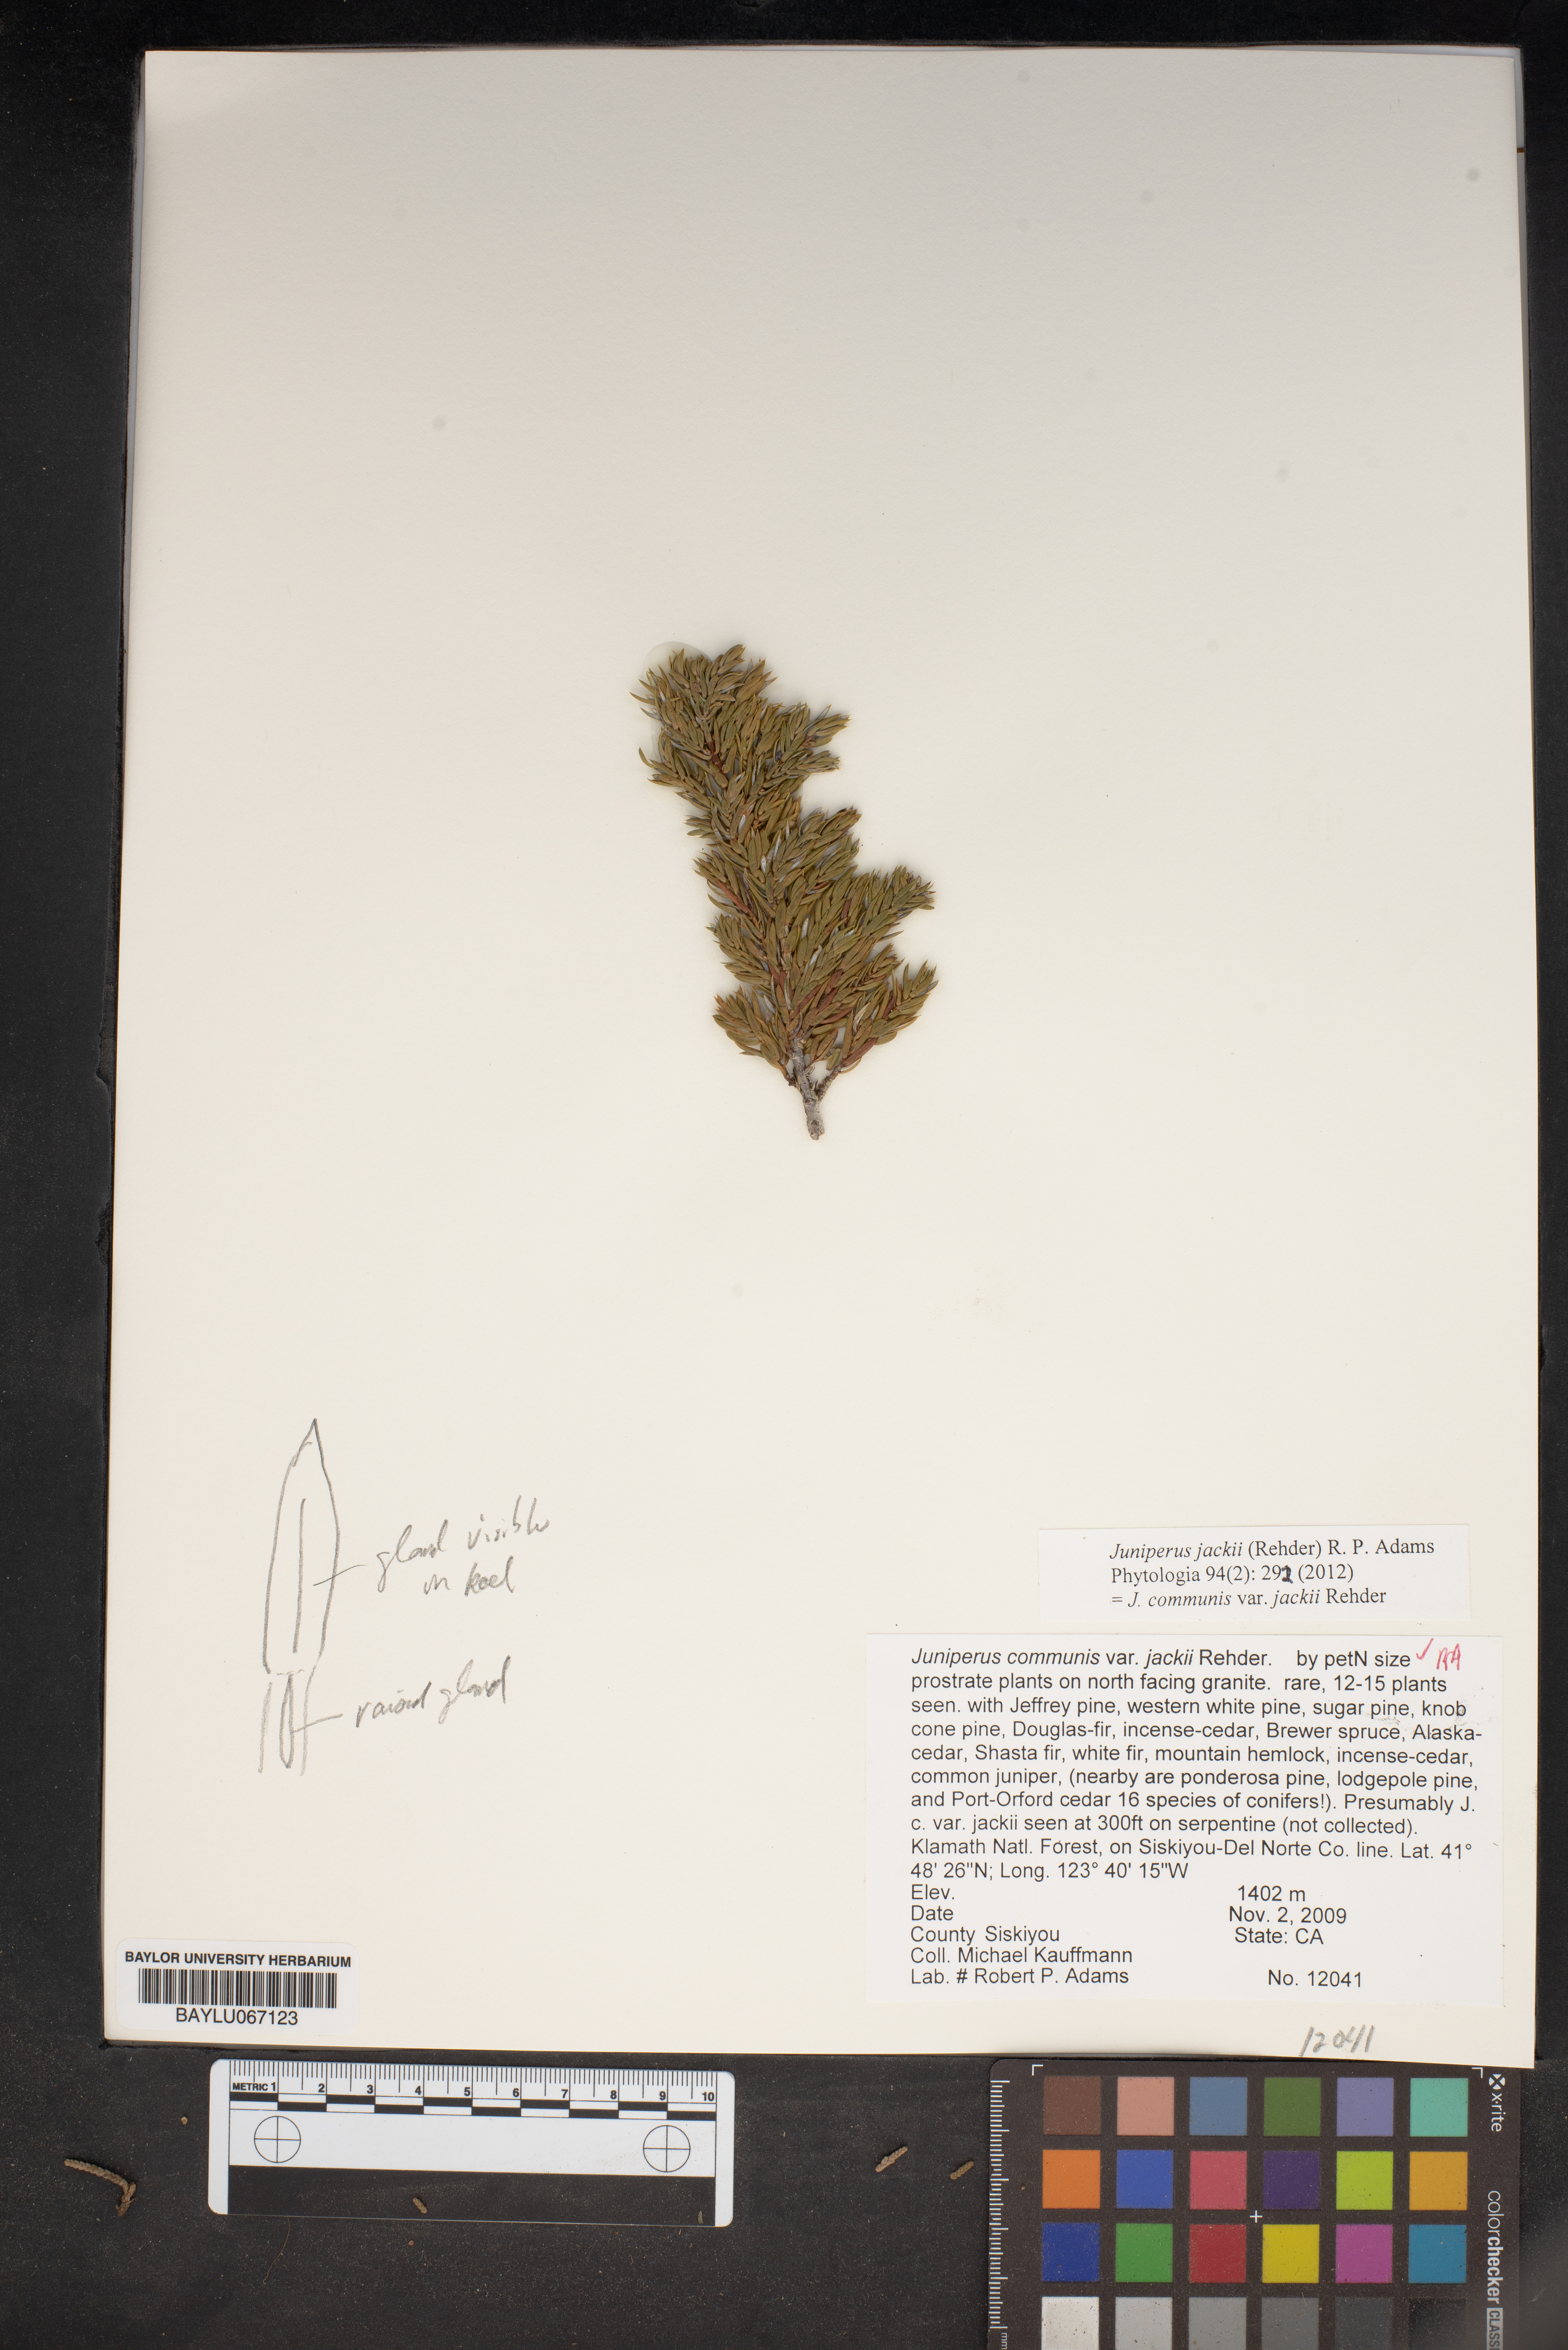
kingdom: Plantae
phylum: Tracheophyta
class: Pinopsida
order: Pinales
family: Cupressaceae
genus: Juniperus
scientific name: Juniperus communis
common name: Common juniper
